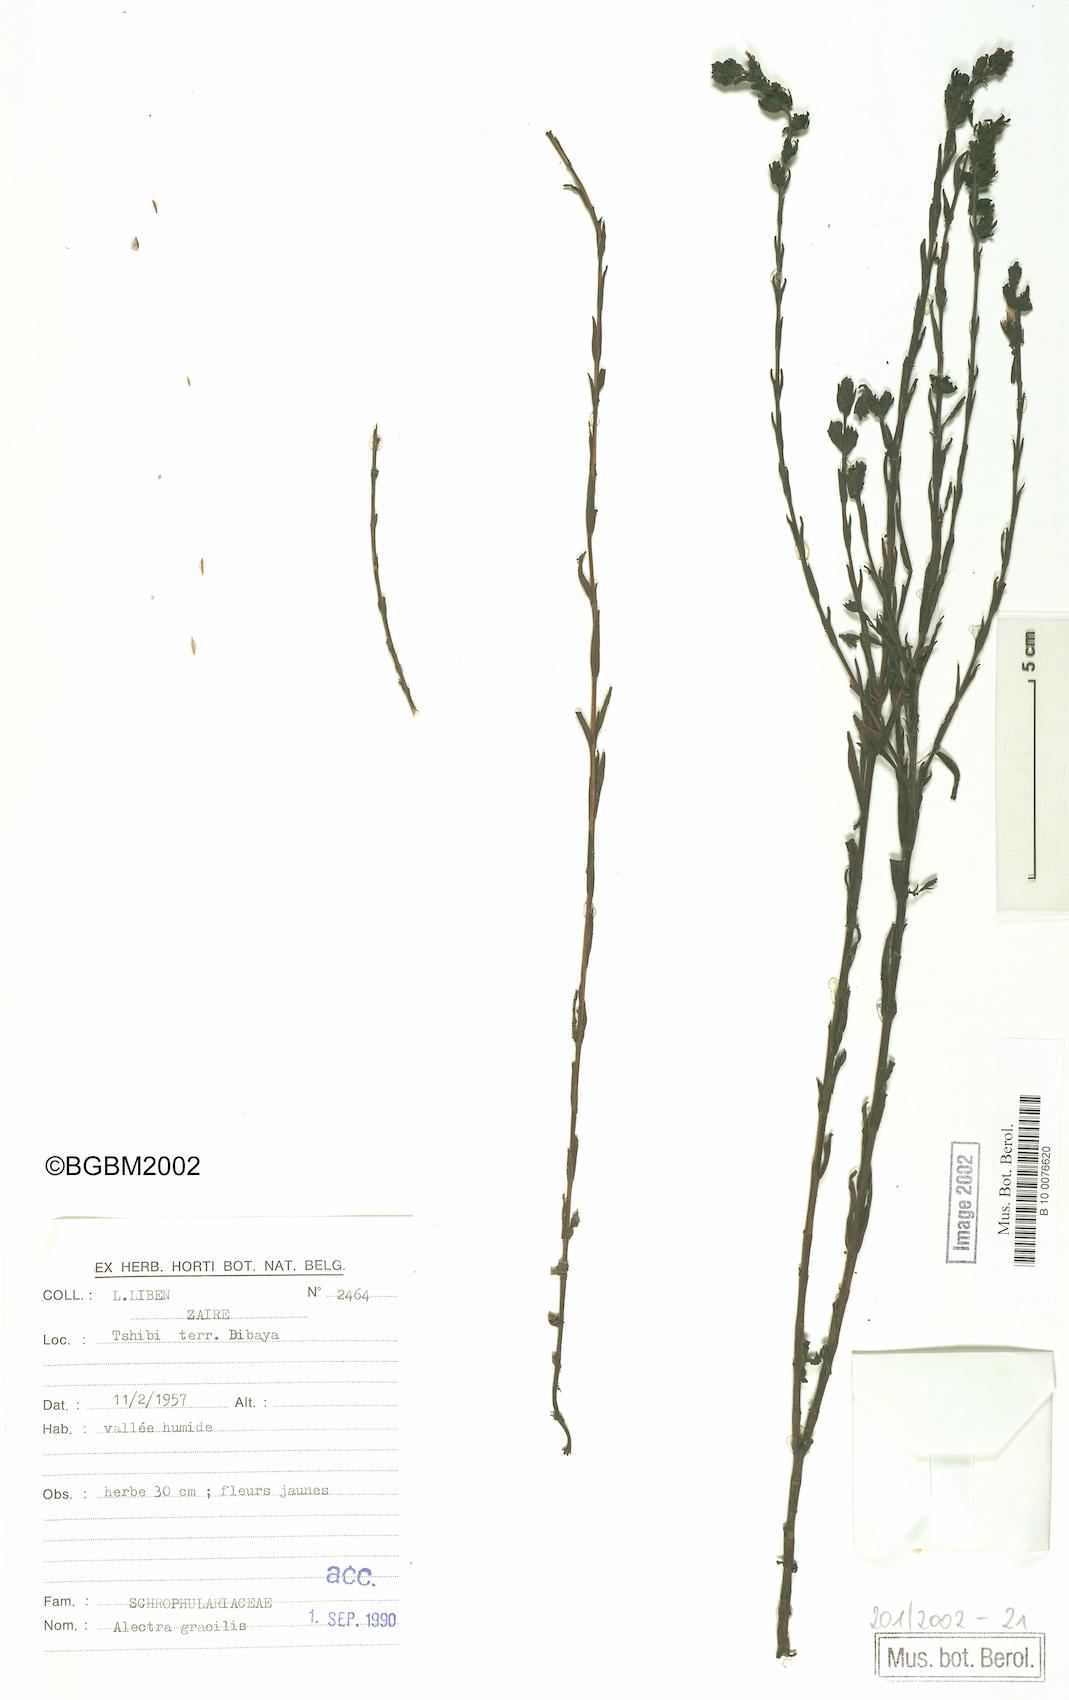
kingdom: Plantae
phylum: Tracheophyta
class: Magnoliopsida
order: Lamiales
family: Orobanchaceae
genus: Alectra
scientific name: Alectra gracilis
